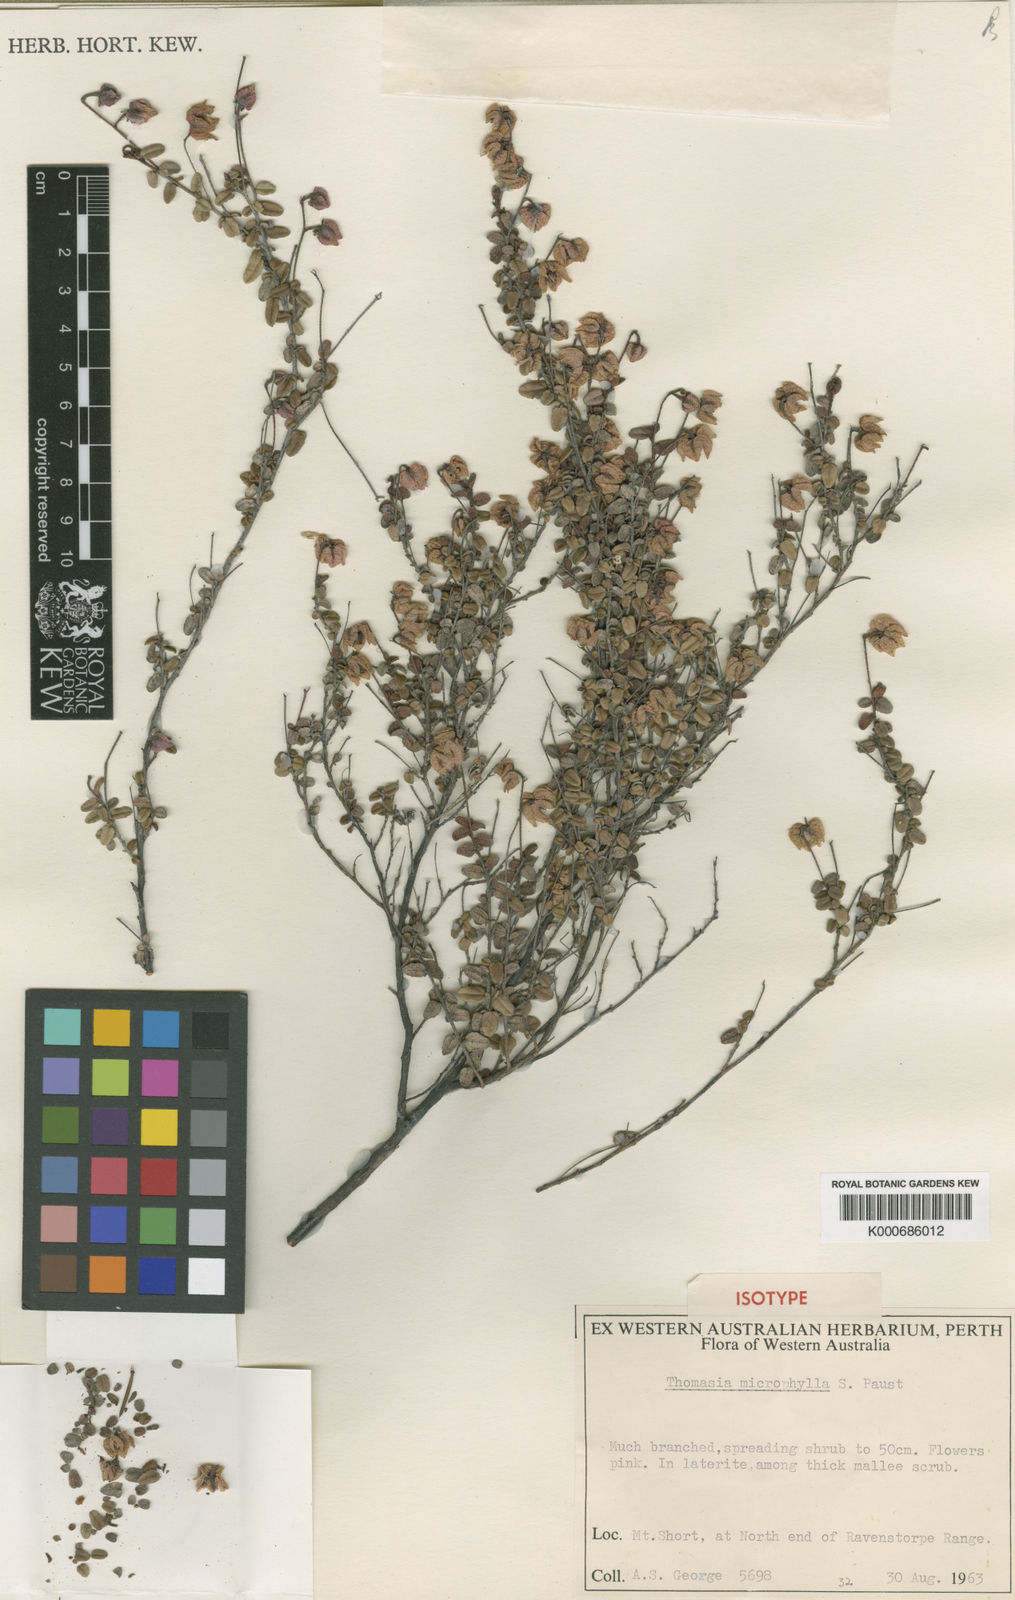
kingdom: Plantae
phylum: Tracheophyta
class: Magnoliopsida
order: Malvales
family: Malvaceae
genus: Thomasia
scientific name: Thomasia microphylla
